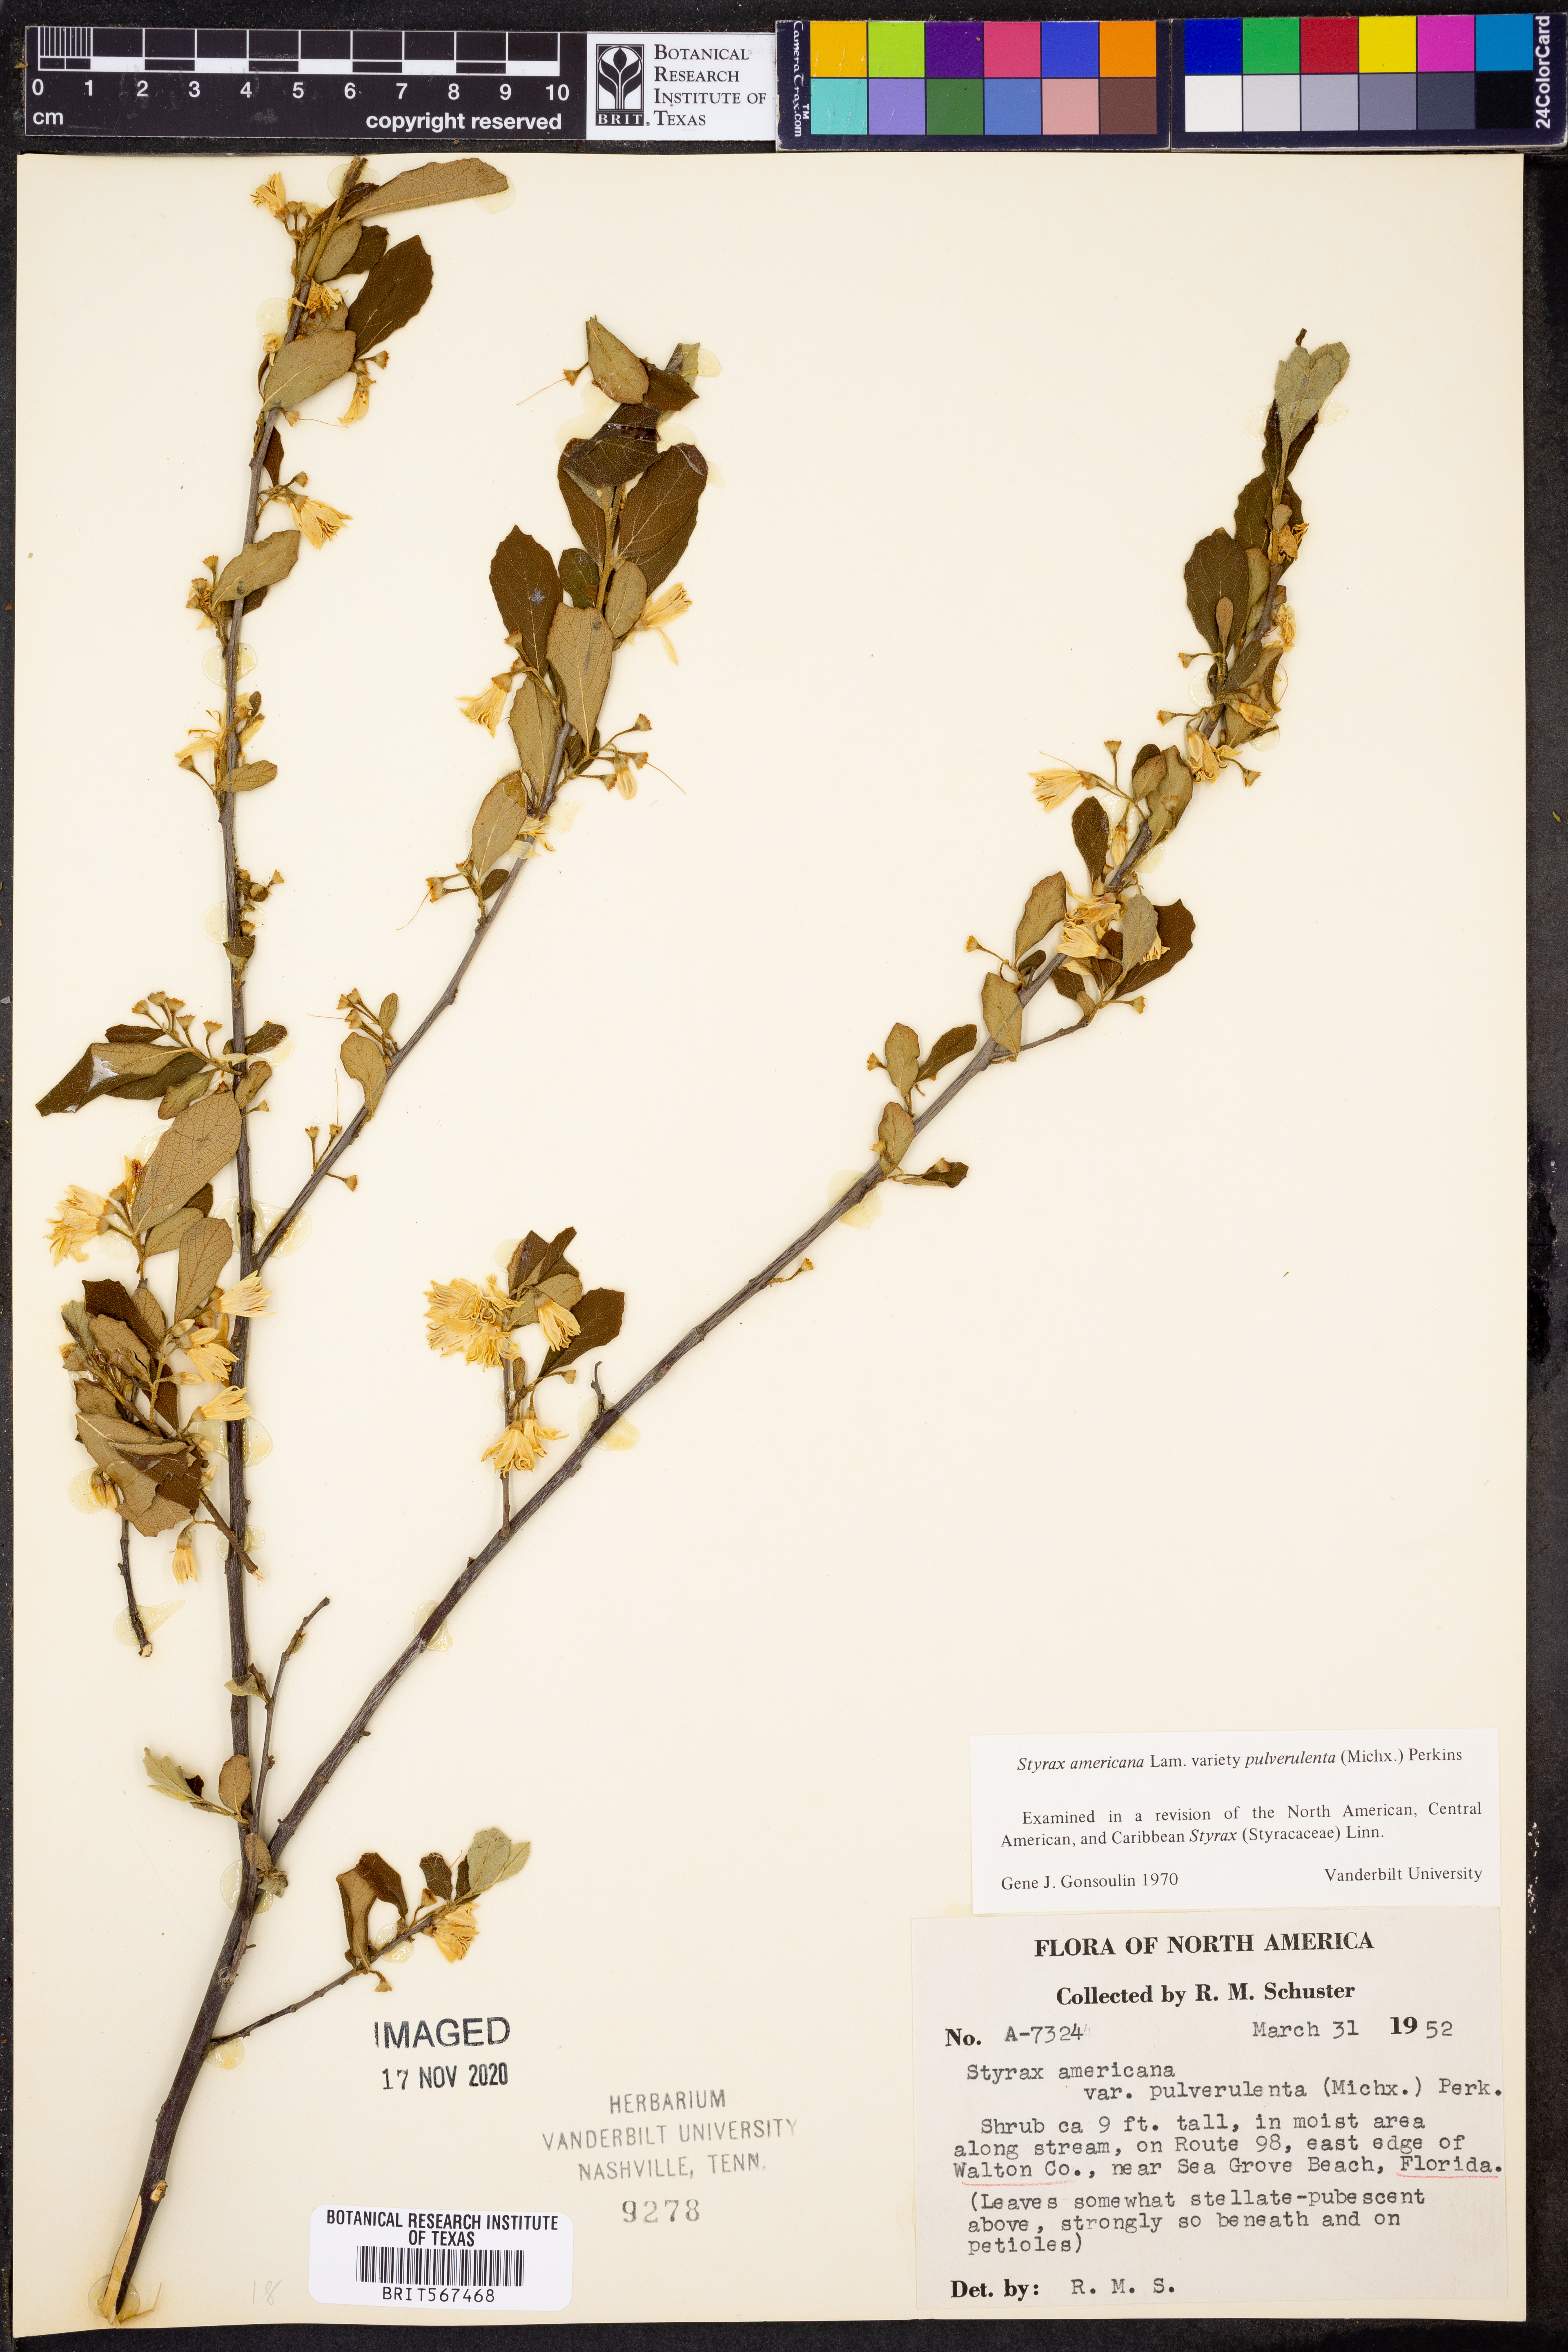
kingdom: Plantae
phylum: Tracheophyta
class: Magnoliopsida
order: Ericales
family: Styracaceae
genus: Styrax
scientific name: Styrax americanus
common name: American snowbell
